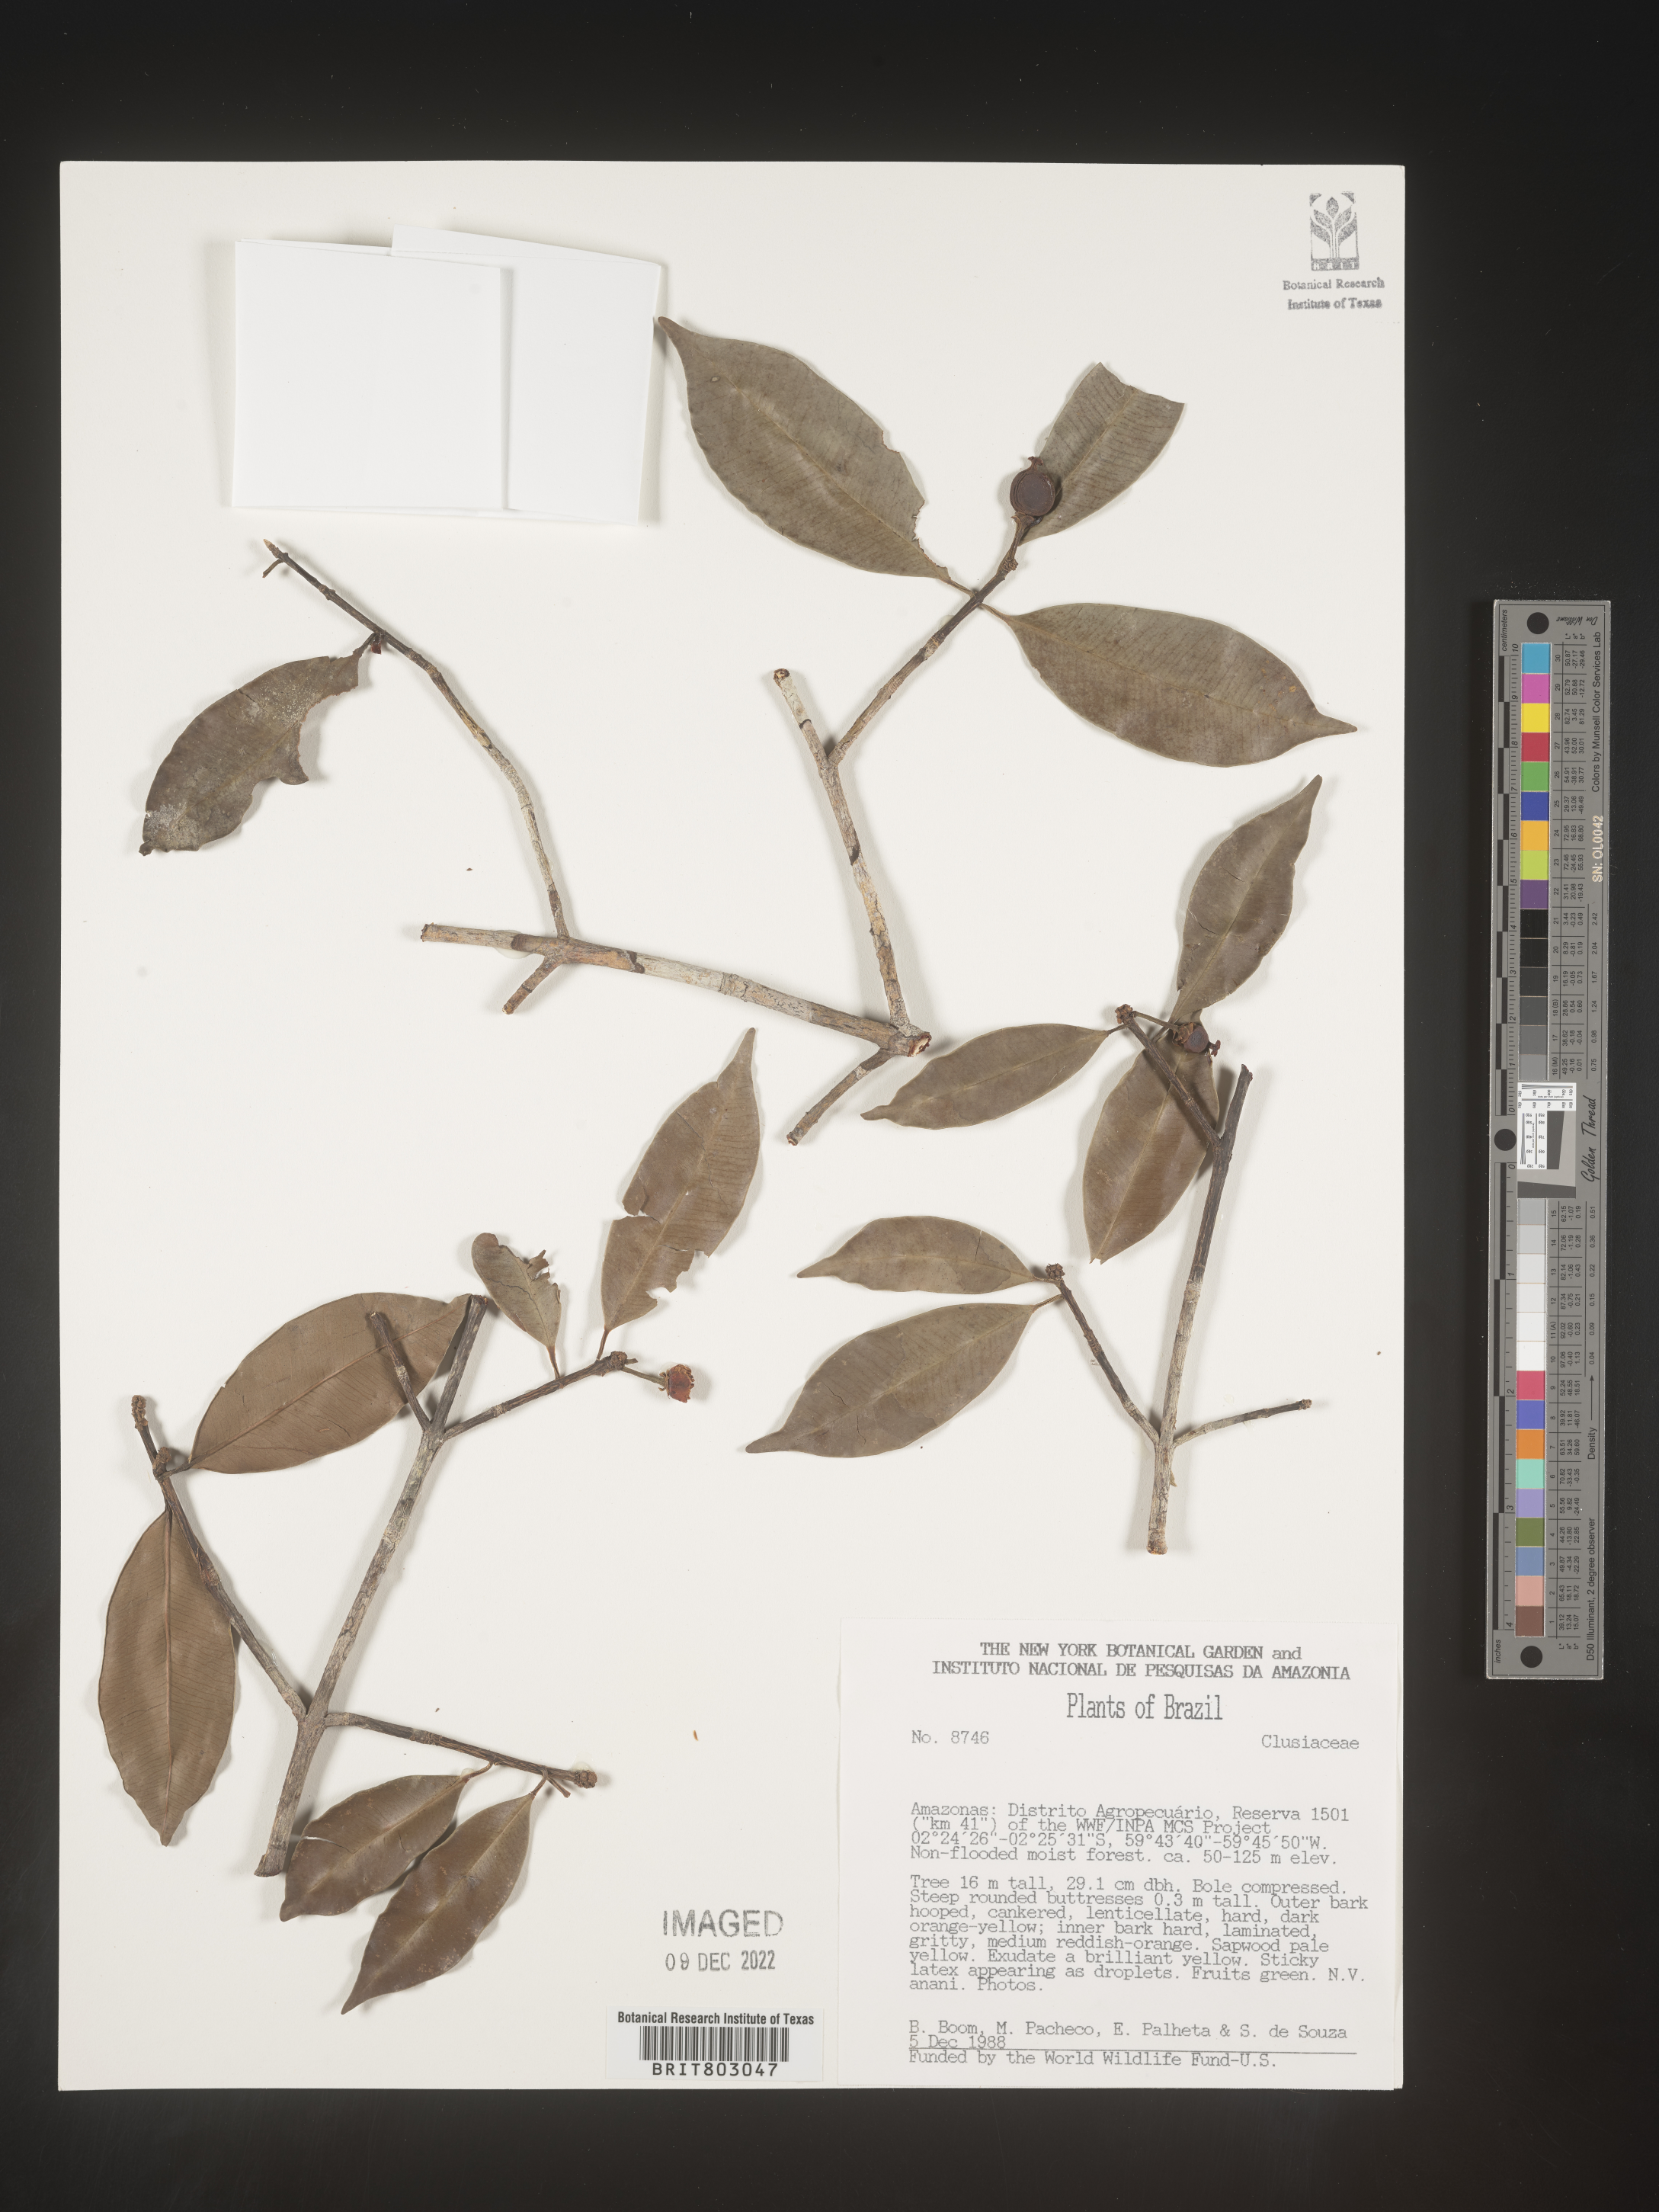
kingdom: Plantae
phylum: Tracheophyta
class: Magnoliopsida
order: Malpighiales
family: Clusiaceae
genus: Symphonia
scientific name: Symphonia
